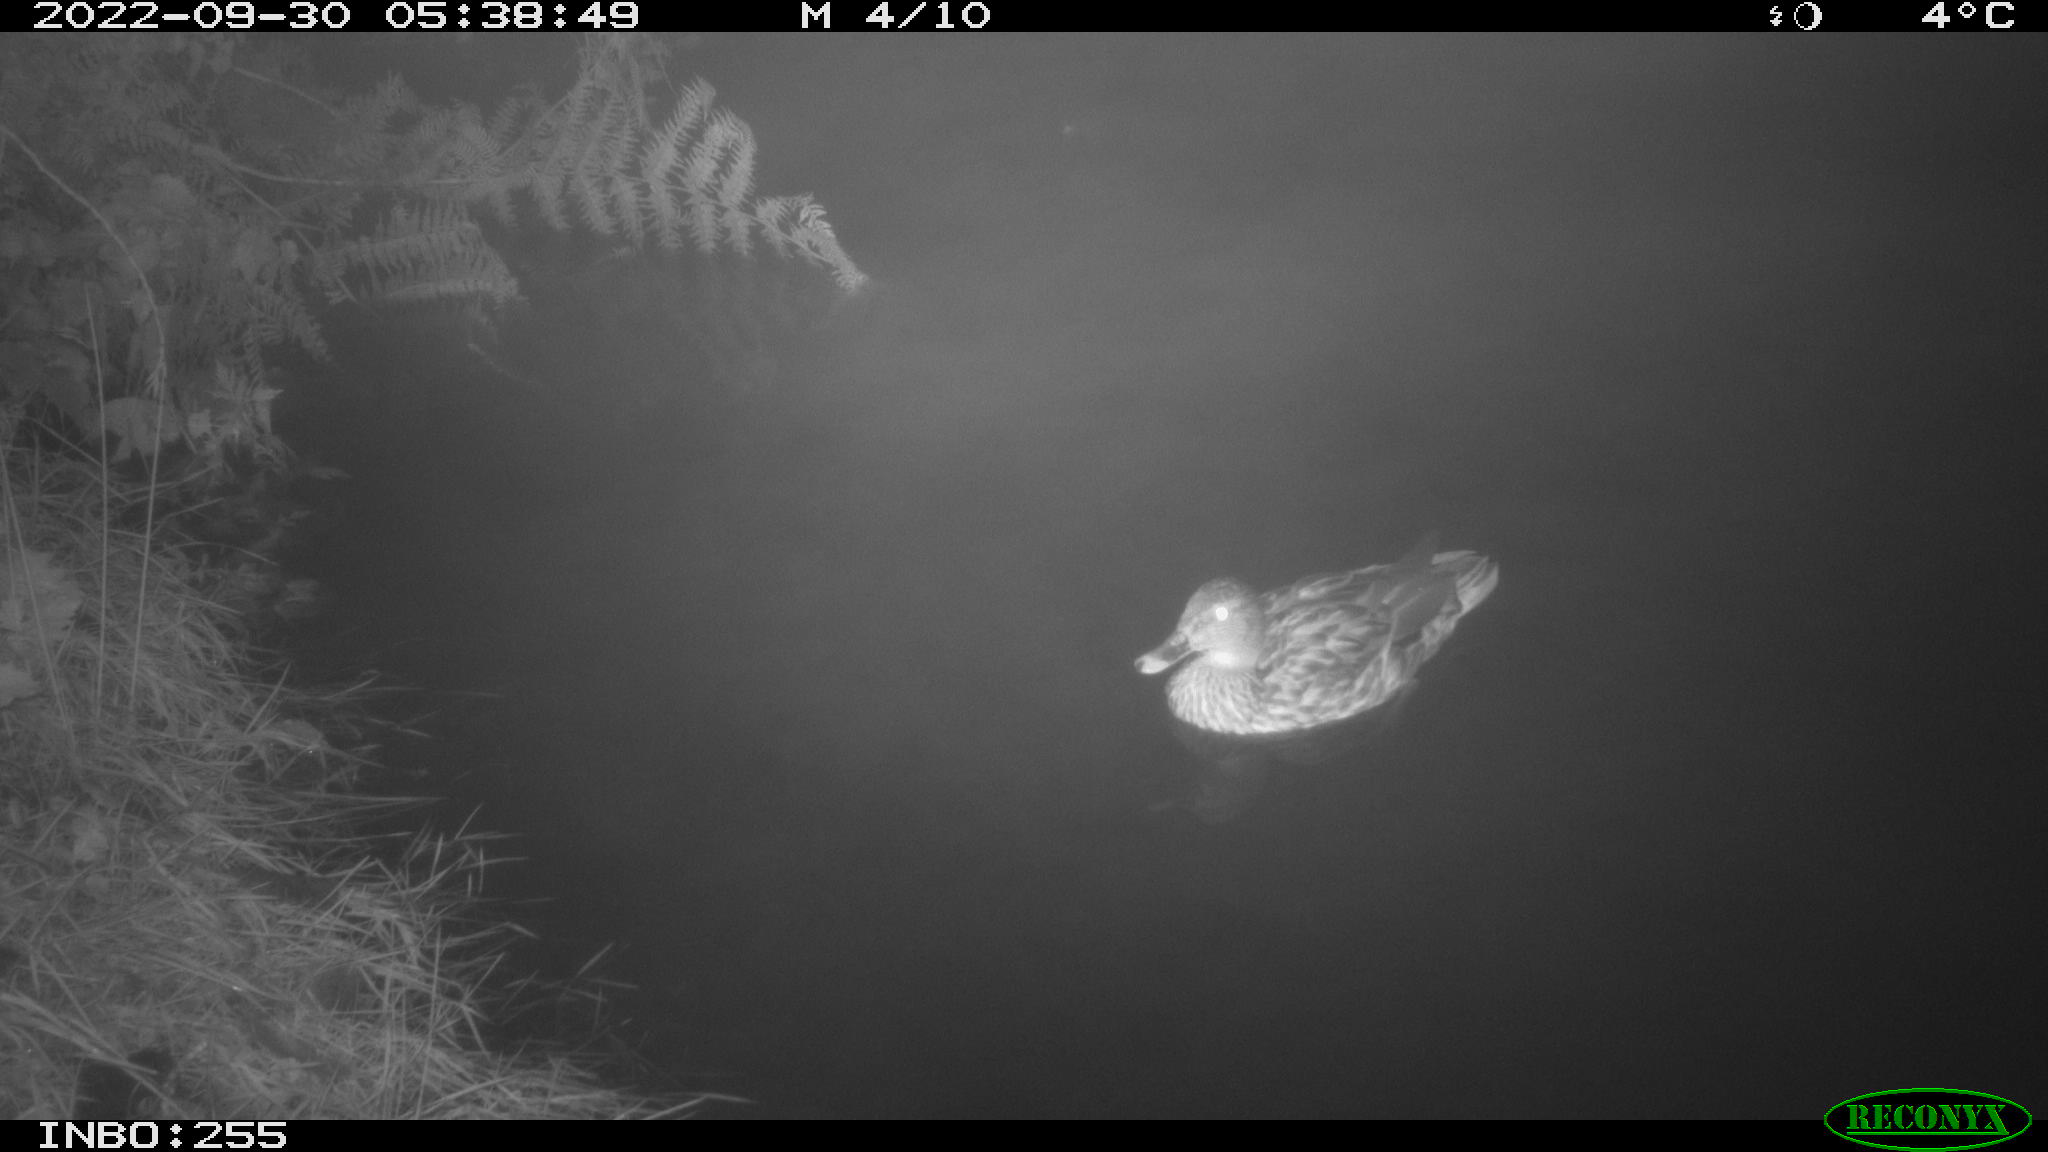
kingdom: Animalia
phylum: Chordata
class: Aves
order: Anseriformes
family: Anatidae
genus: Anas
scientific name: Anas platyrhynchos
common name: Mallard
